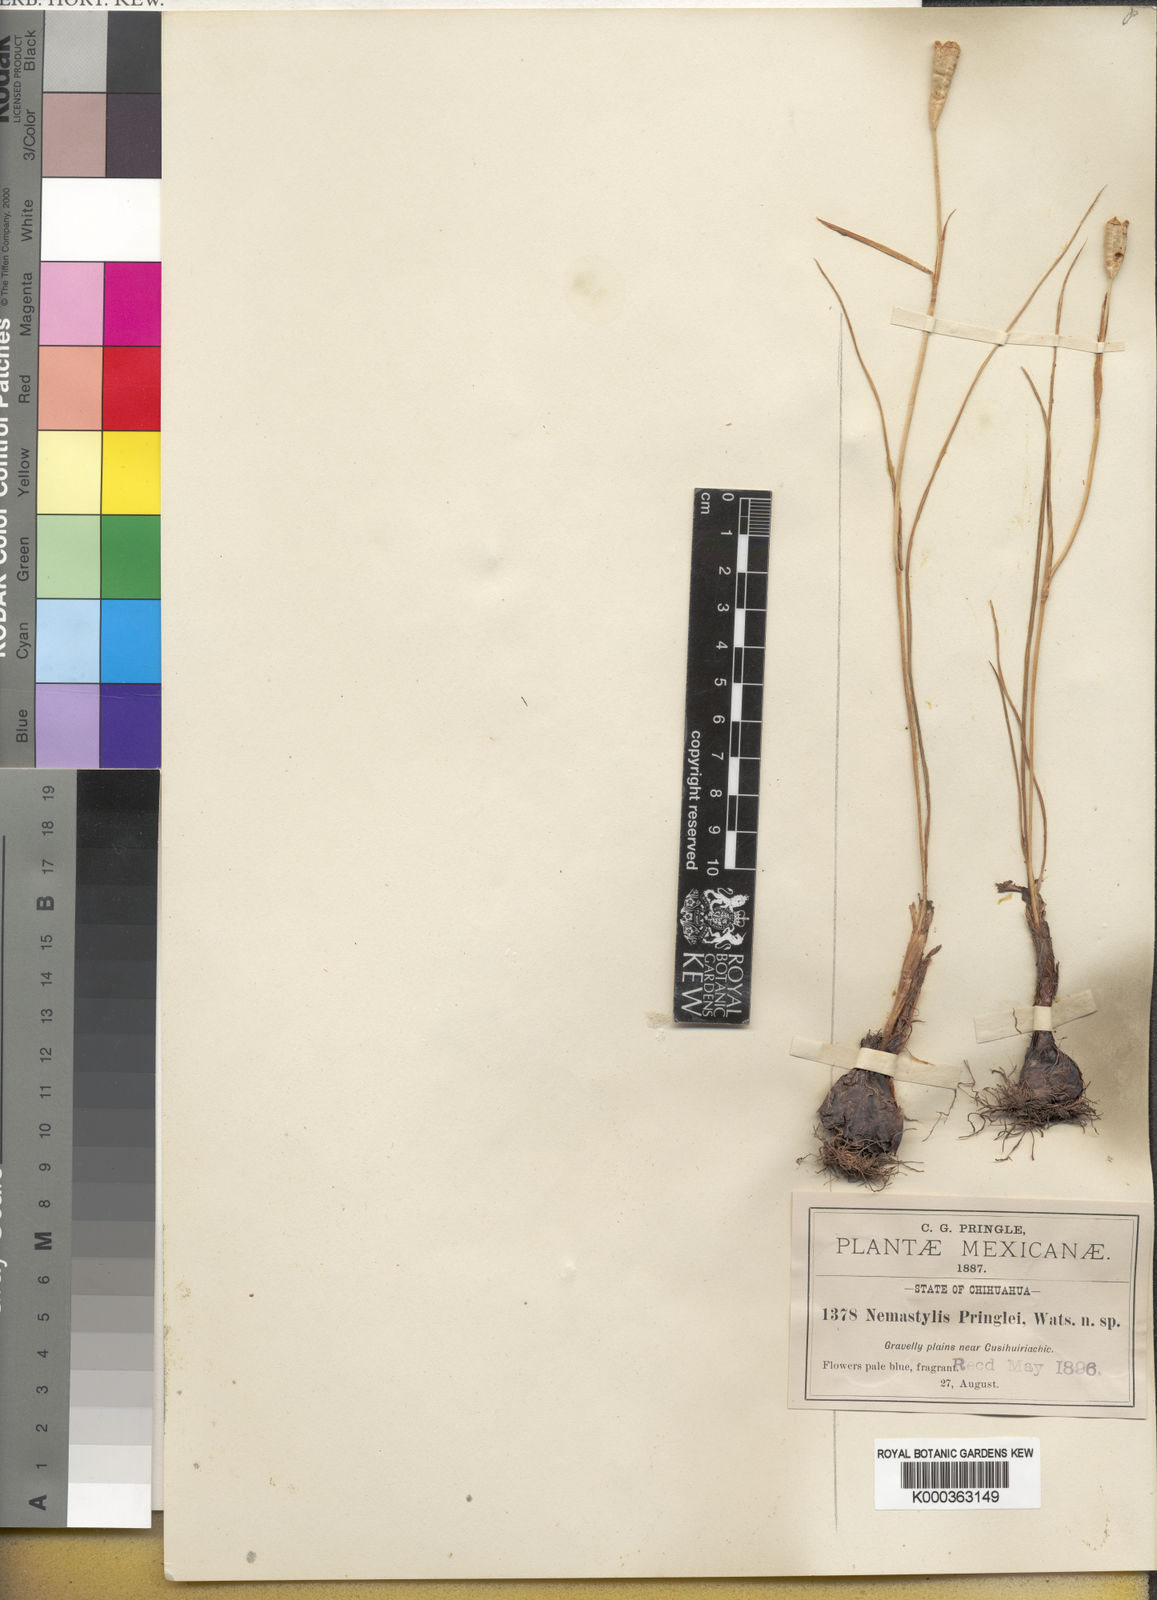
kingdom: Plantae
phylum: Tracheophyta
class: Liliopsida
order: Asparagales
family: Iridaceae
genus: Nemastylis
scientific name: Nemastylis tenuis
